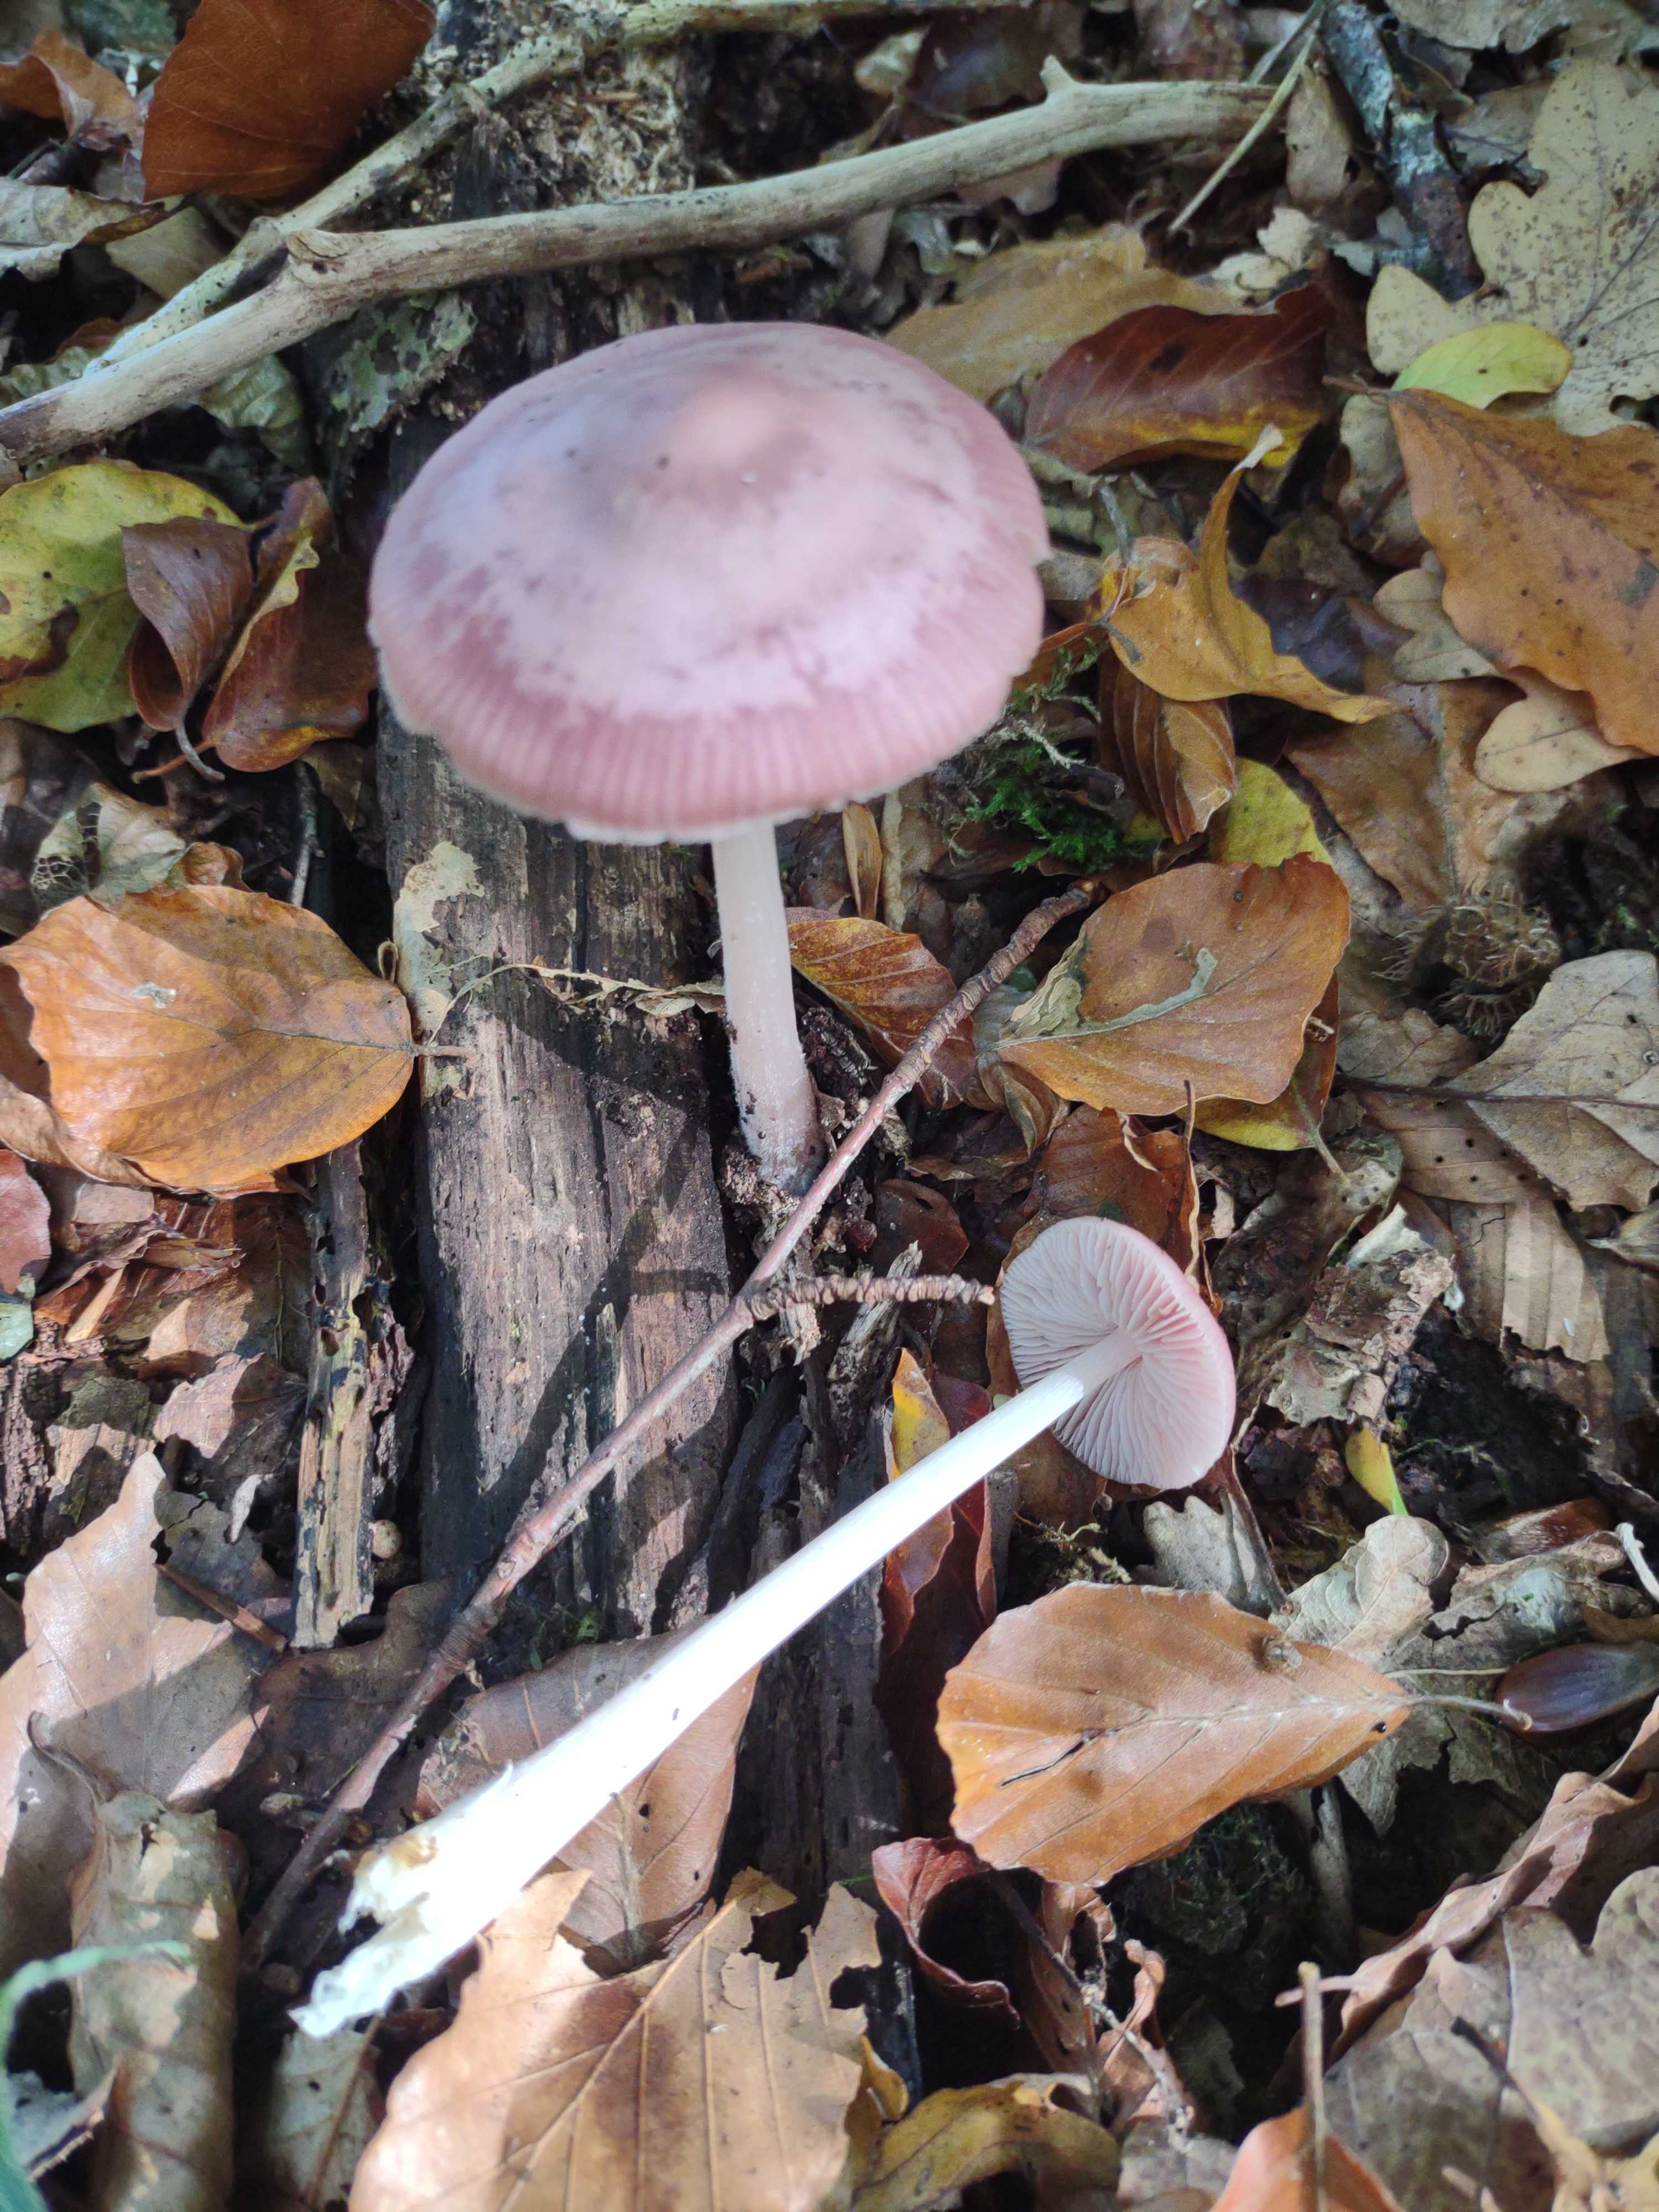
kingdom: Fungi
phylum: Basidiomycota
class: Agaricomycetes
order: Agaricales
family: Mycenaceae
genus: Mycena
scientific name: Mycena rosea
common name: rosa huesvamp
